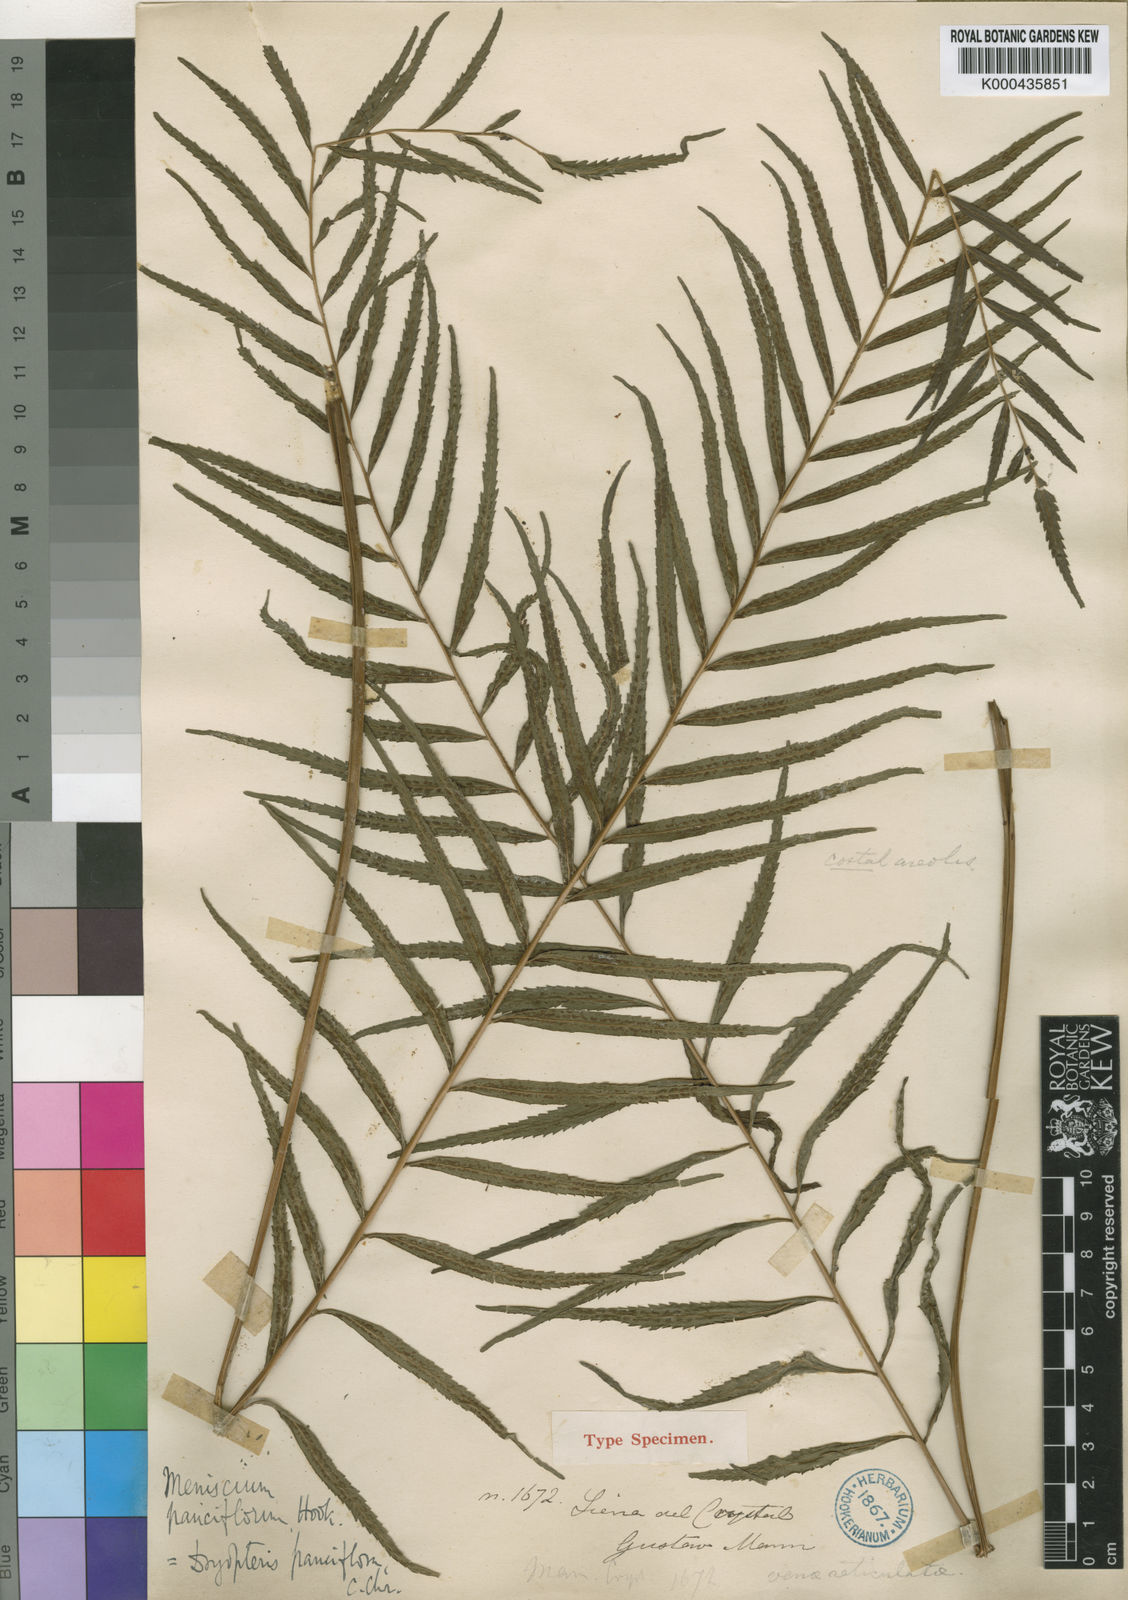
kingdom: Plantae
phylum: Tracheophyta
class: Polypodiopsida
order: Polypodiales
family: Thelypteridaceae
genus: Menisorus
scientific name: Menisorus pauciflorus
